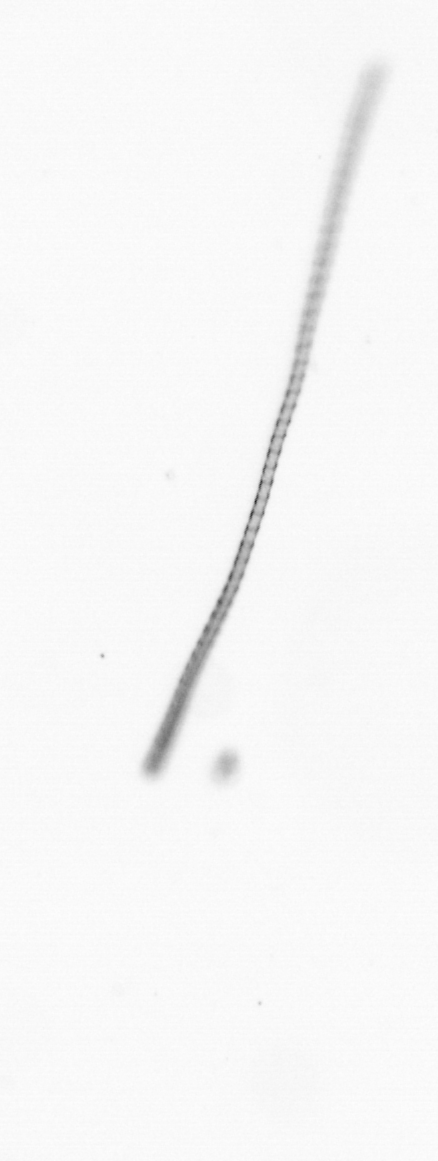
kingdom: Chromista
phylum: Ochrophyta
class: Bacillariophyceae
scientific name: Bacillariophyceae
